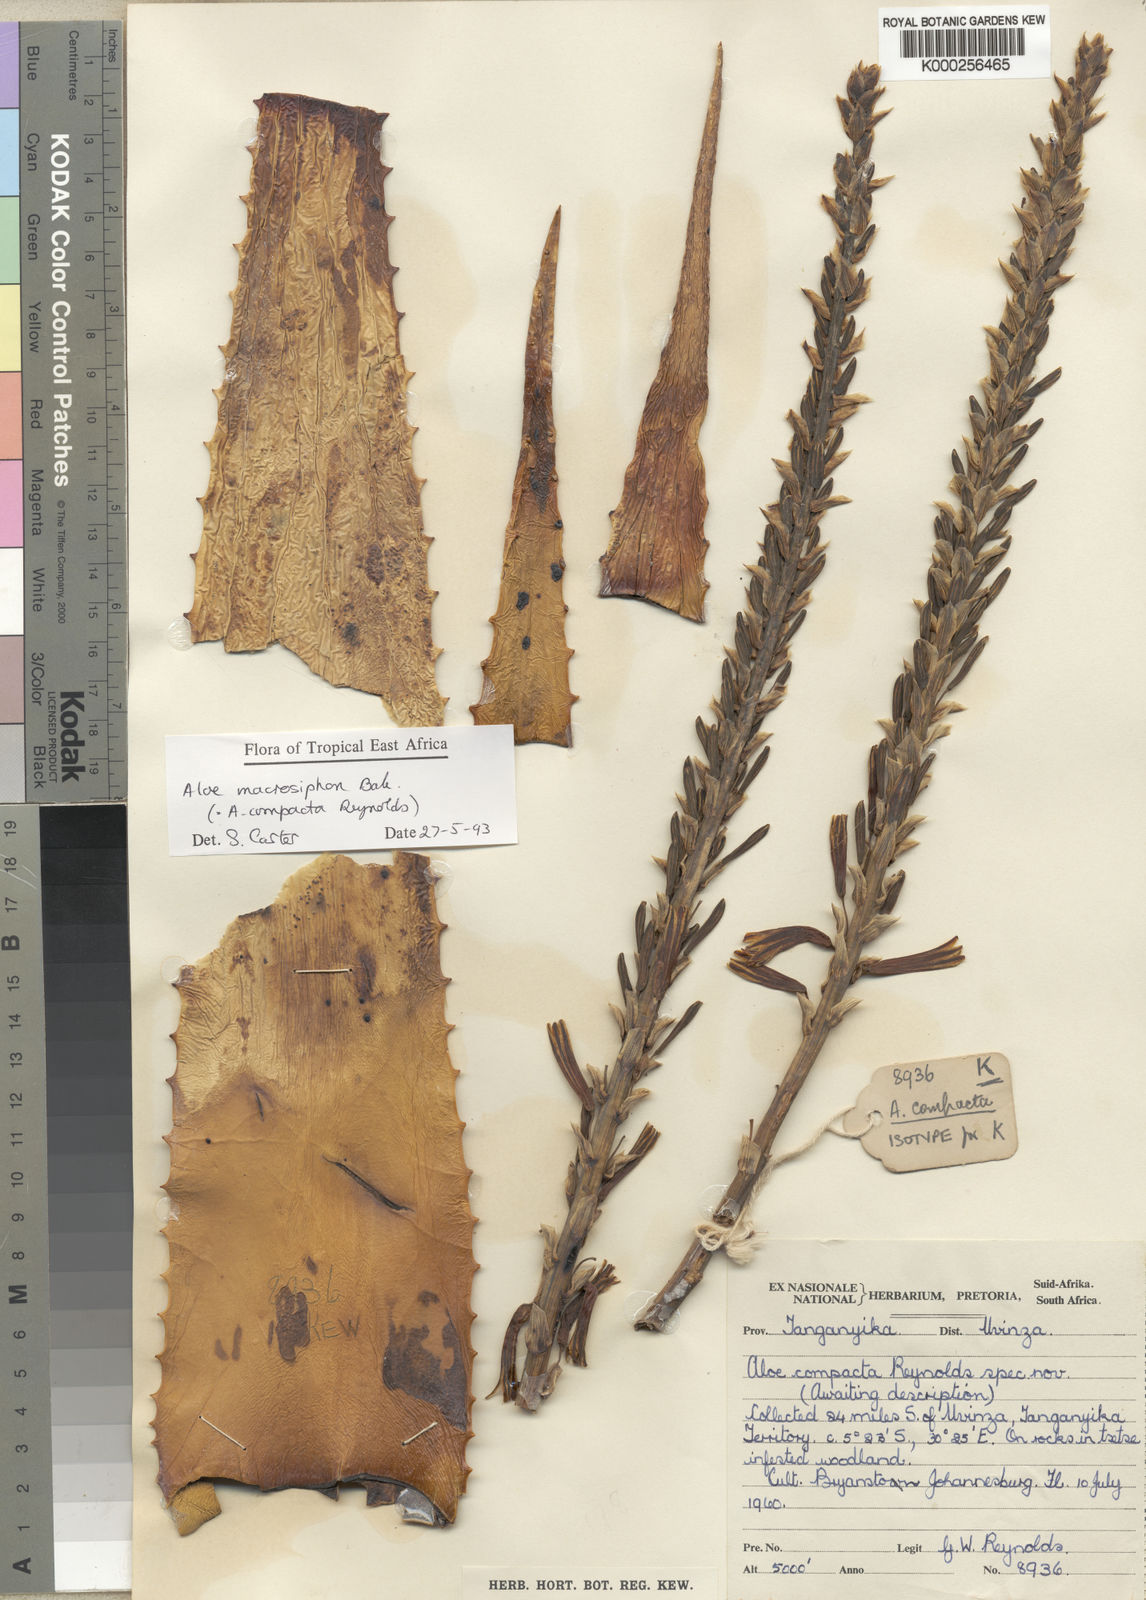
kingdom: Plantae
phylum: Tracheophyta
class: Liliopsida
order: Asparagales
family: Asphodelaceae
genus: Aloe
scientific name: Aloe macrosiphon
